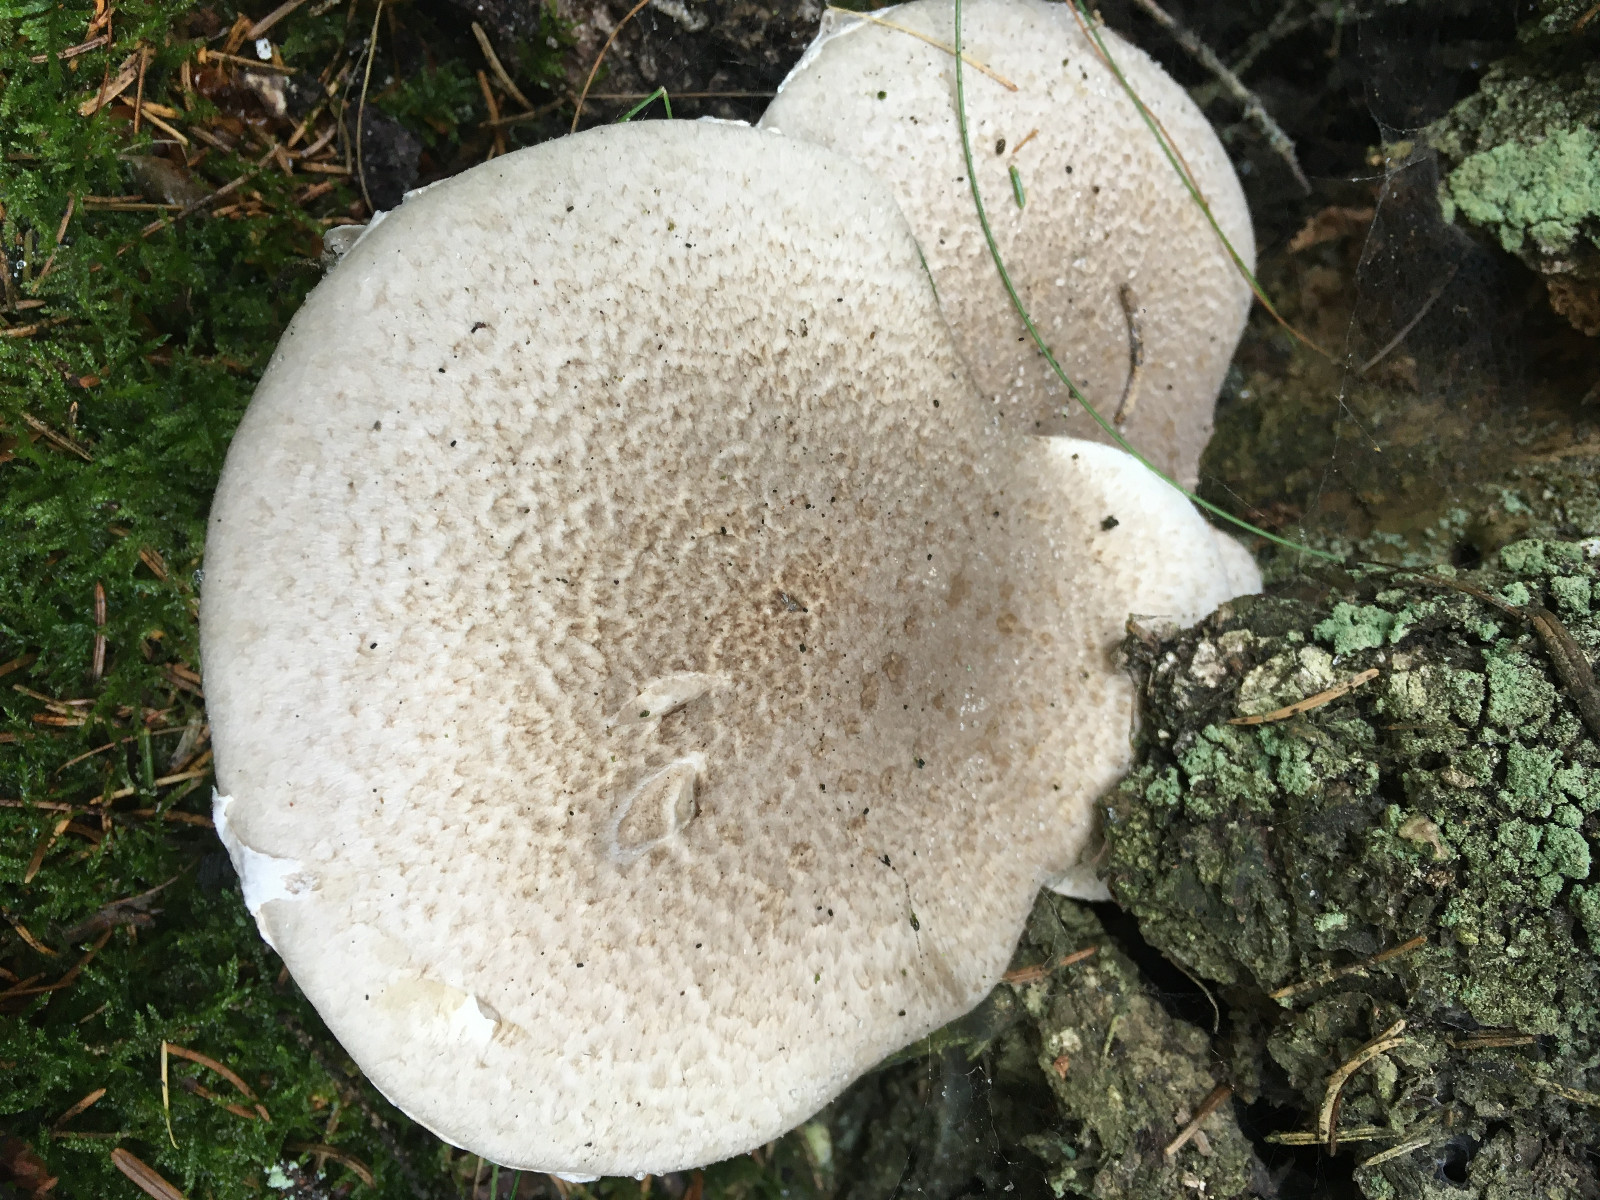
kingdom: Fungi
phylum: Basidiomycota
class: Agaricomycetes
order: Agaricales
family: Pleurotaceae
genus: Pleurotus
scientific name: Pleurotus dryinus
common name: korkagtig østershat
